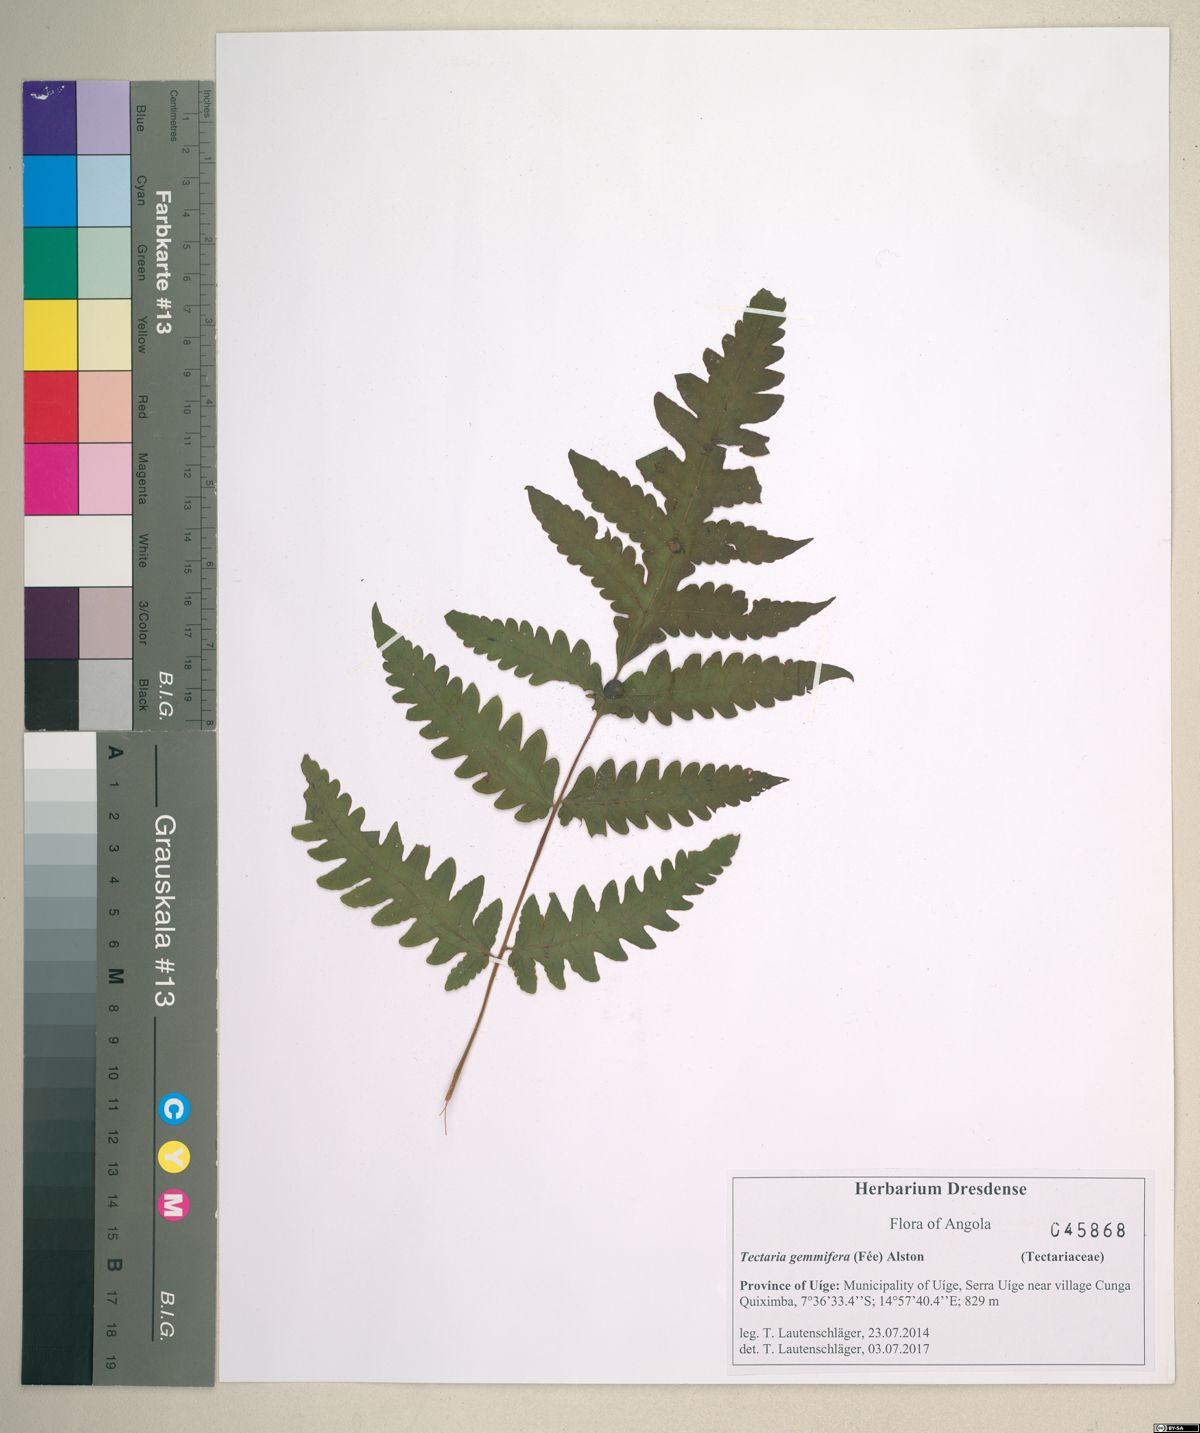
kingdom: Plantae
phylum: Tracheophyta
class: Polypodiopsida
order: Polypodiales
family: Tectariaceae
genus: Tectaria
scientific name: Tectaria gemmifera
